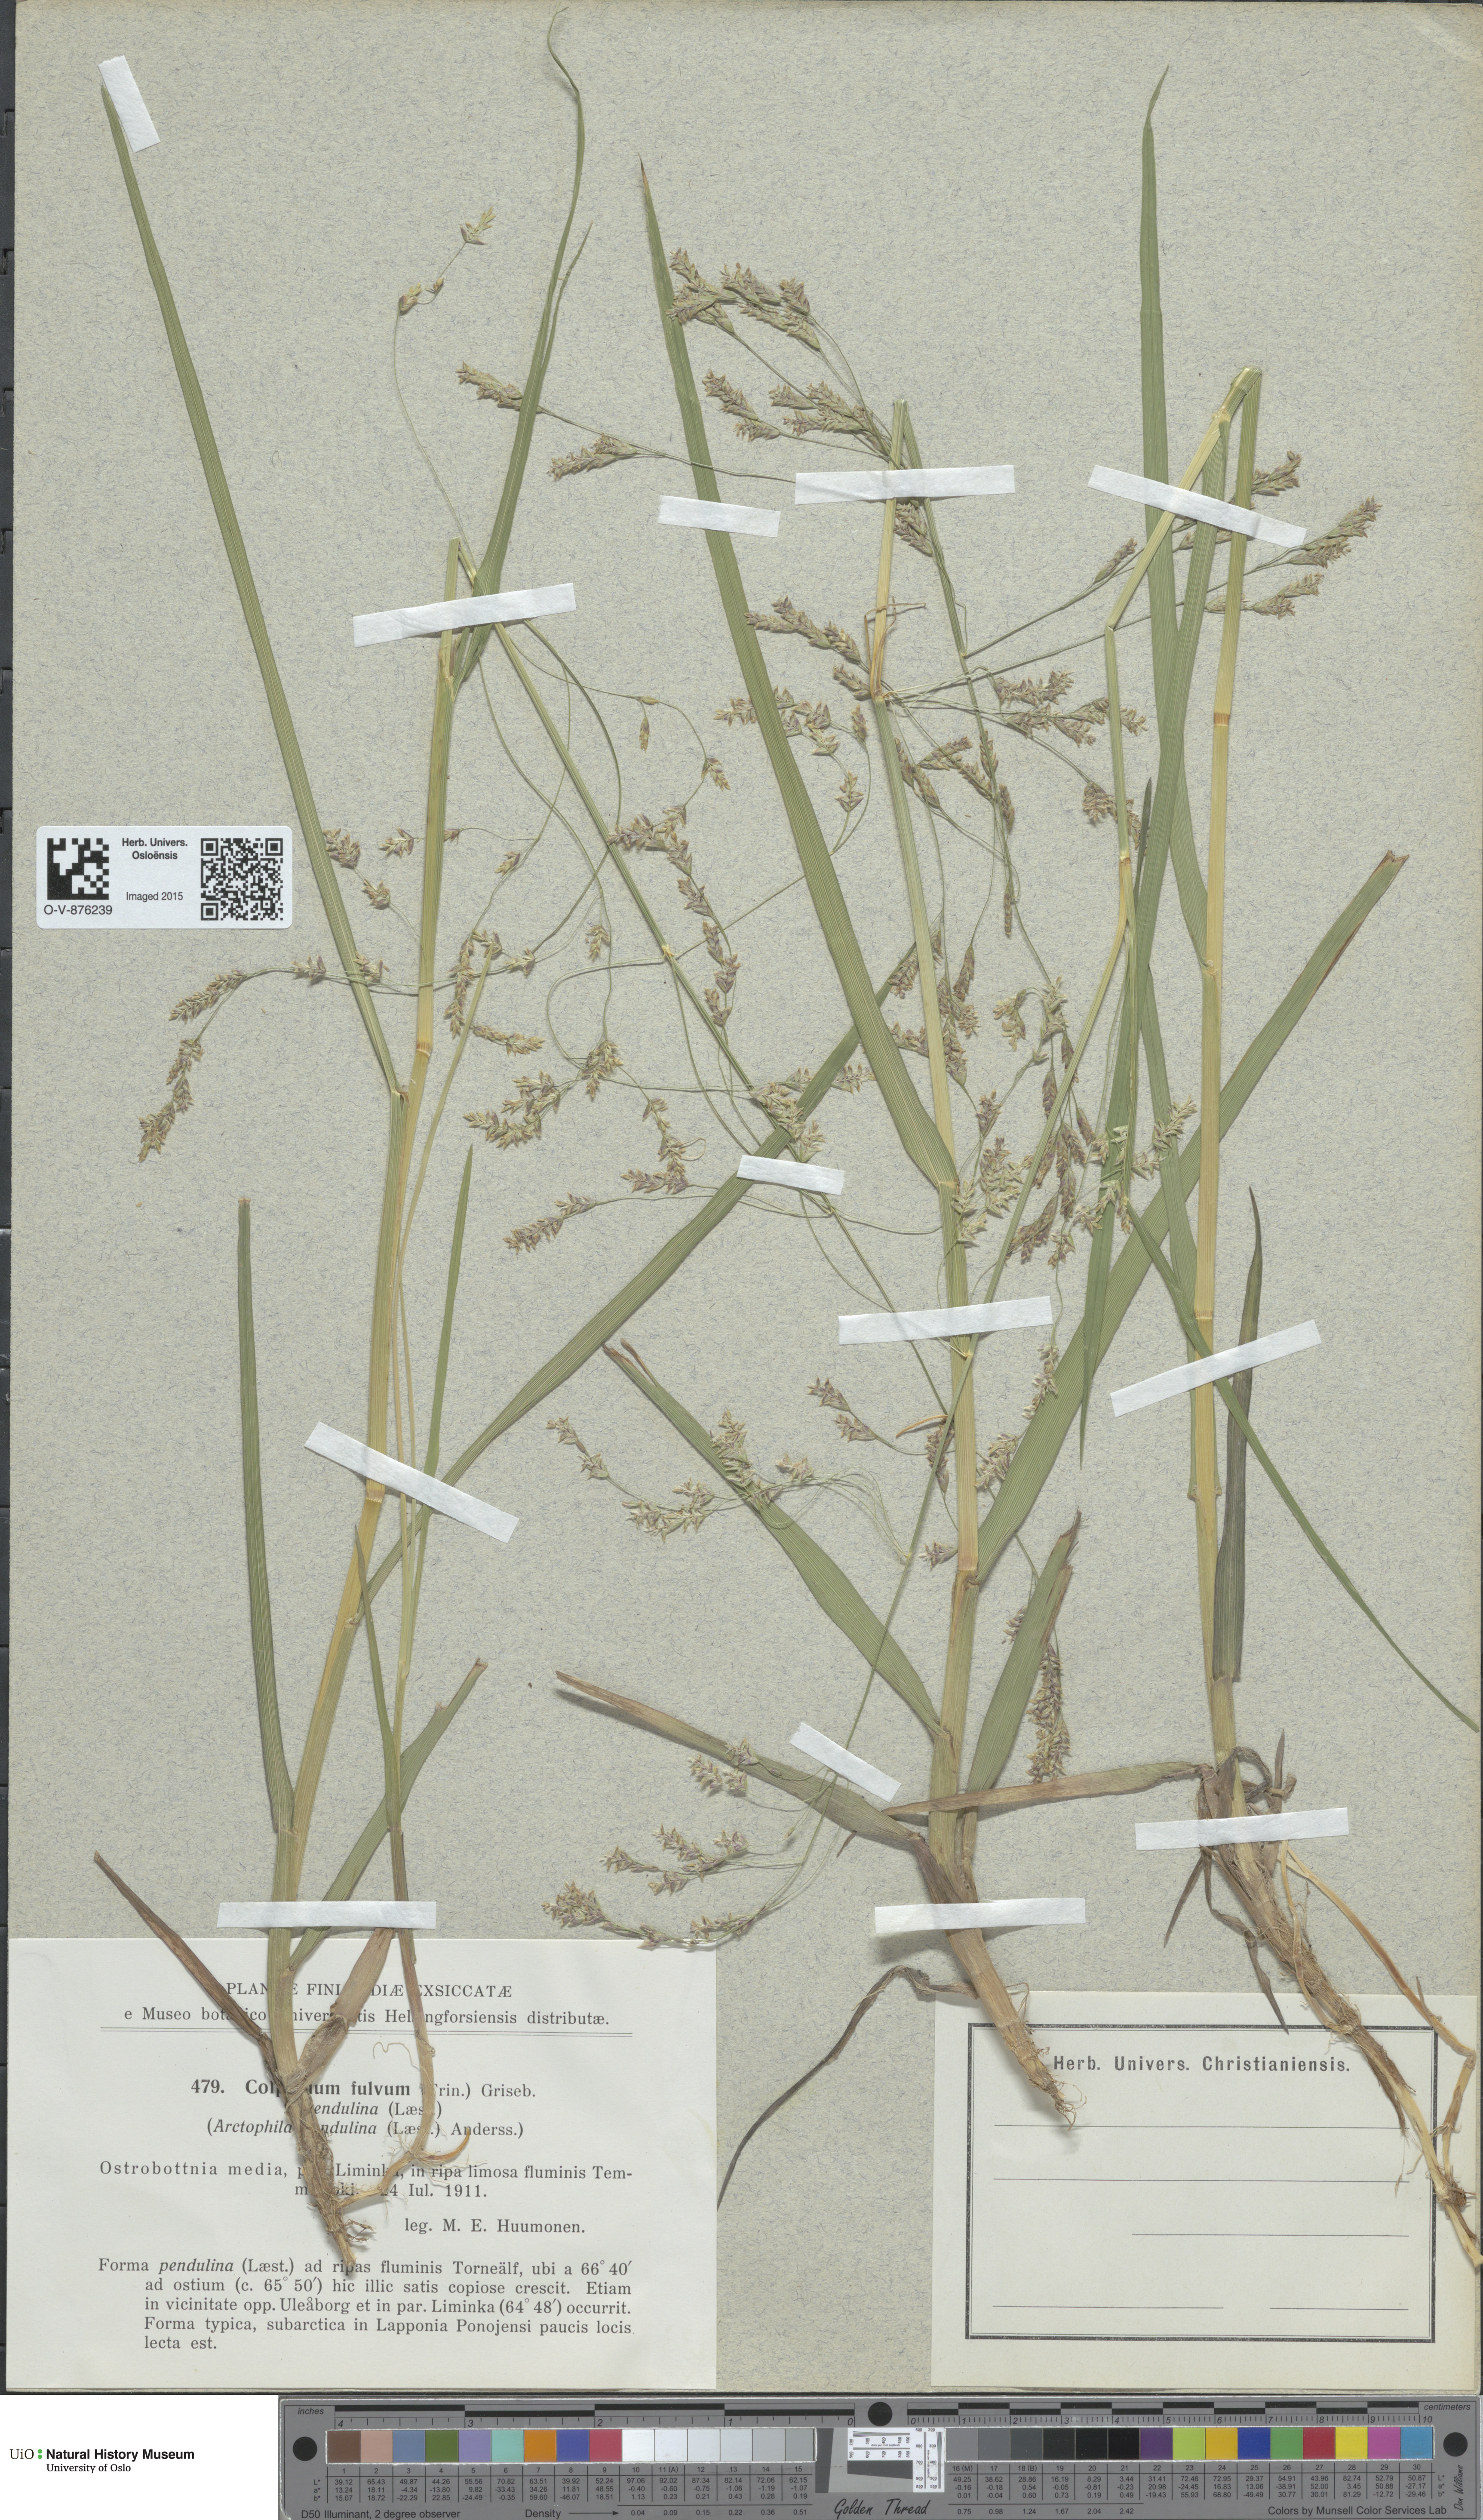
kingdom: Plantae
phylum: Tracheophyta
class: Liliopsida
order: Poales
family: Poaceae
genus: Dupontia
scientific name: Dupontia fulva
